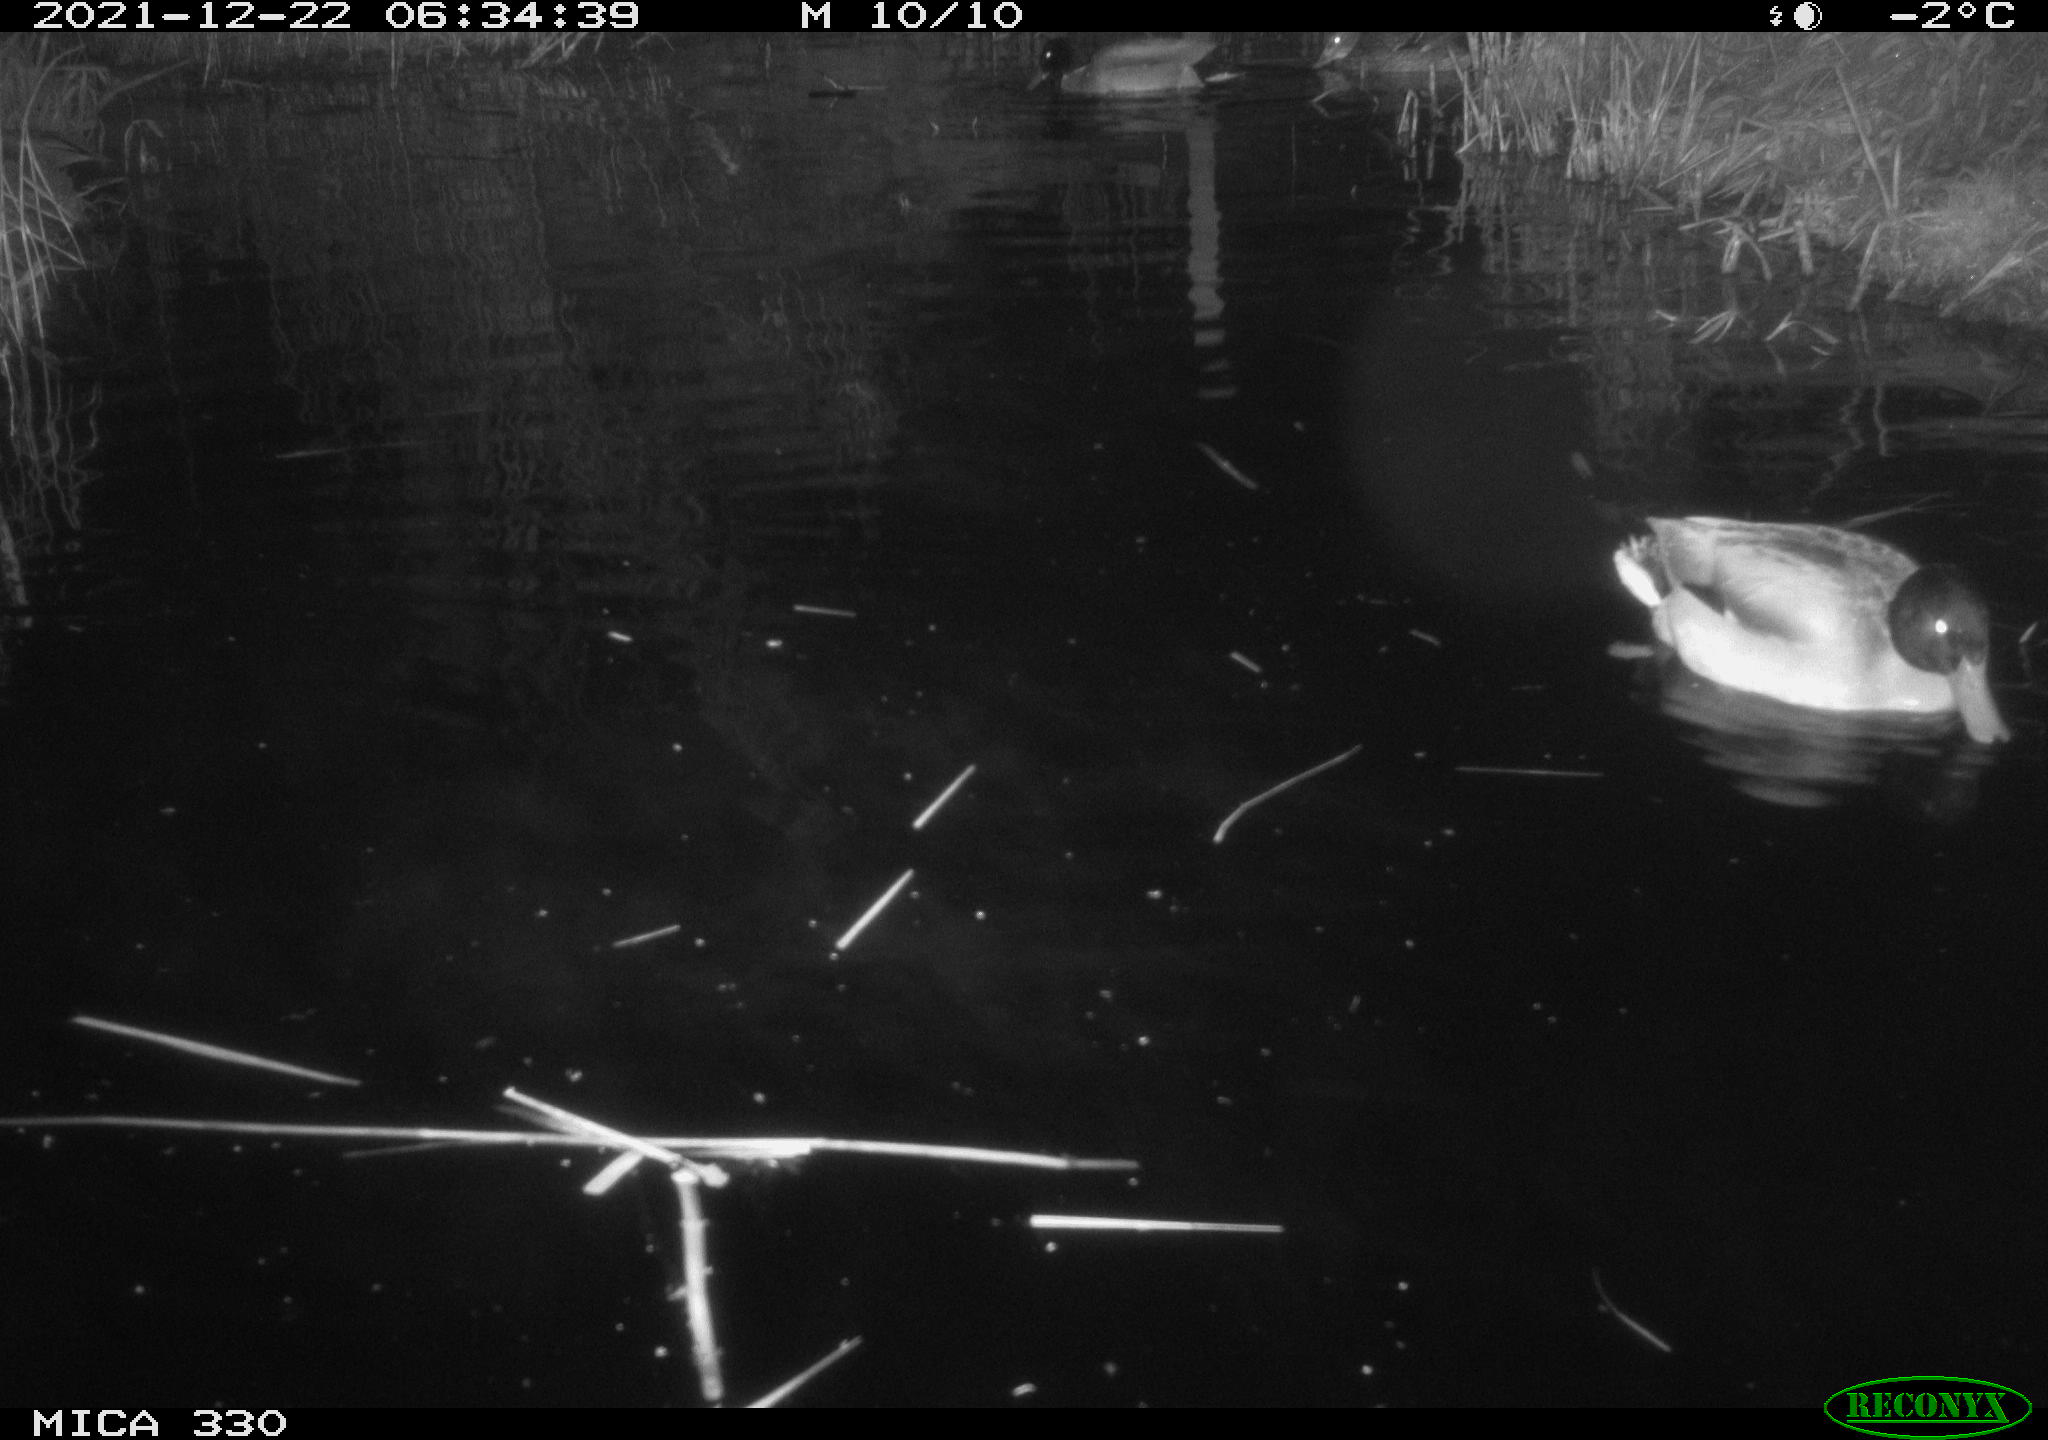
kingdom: Animalia
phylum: Chordata
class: Aves
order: Anseriformes
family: Anatidae
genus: Anas
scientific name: Anas platyrhynchos
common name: Mallard
